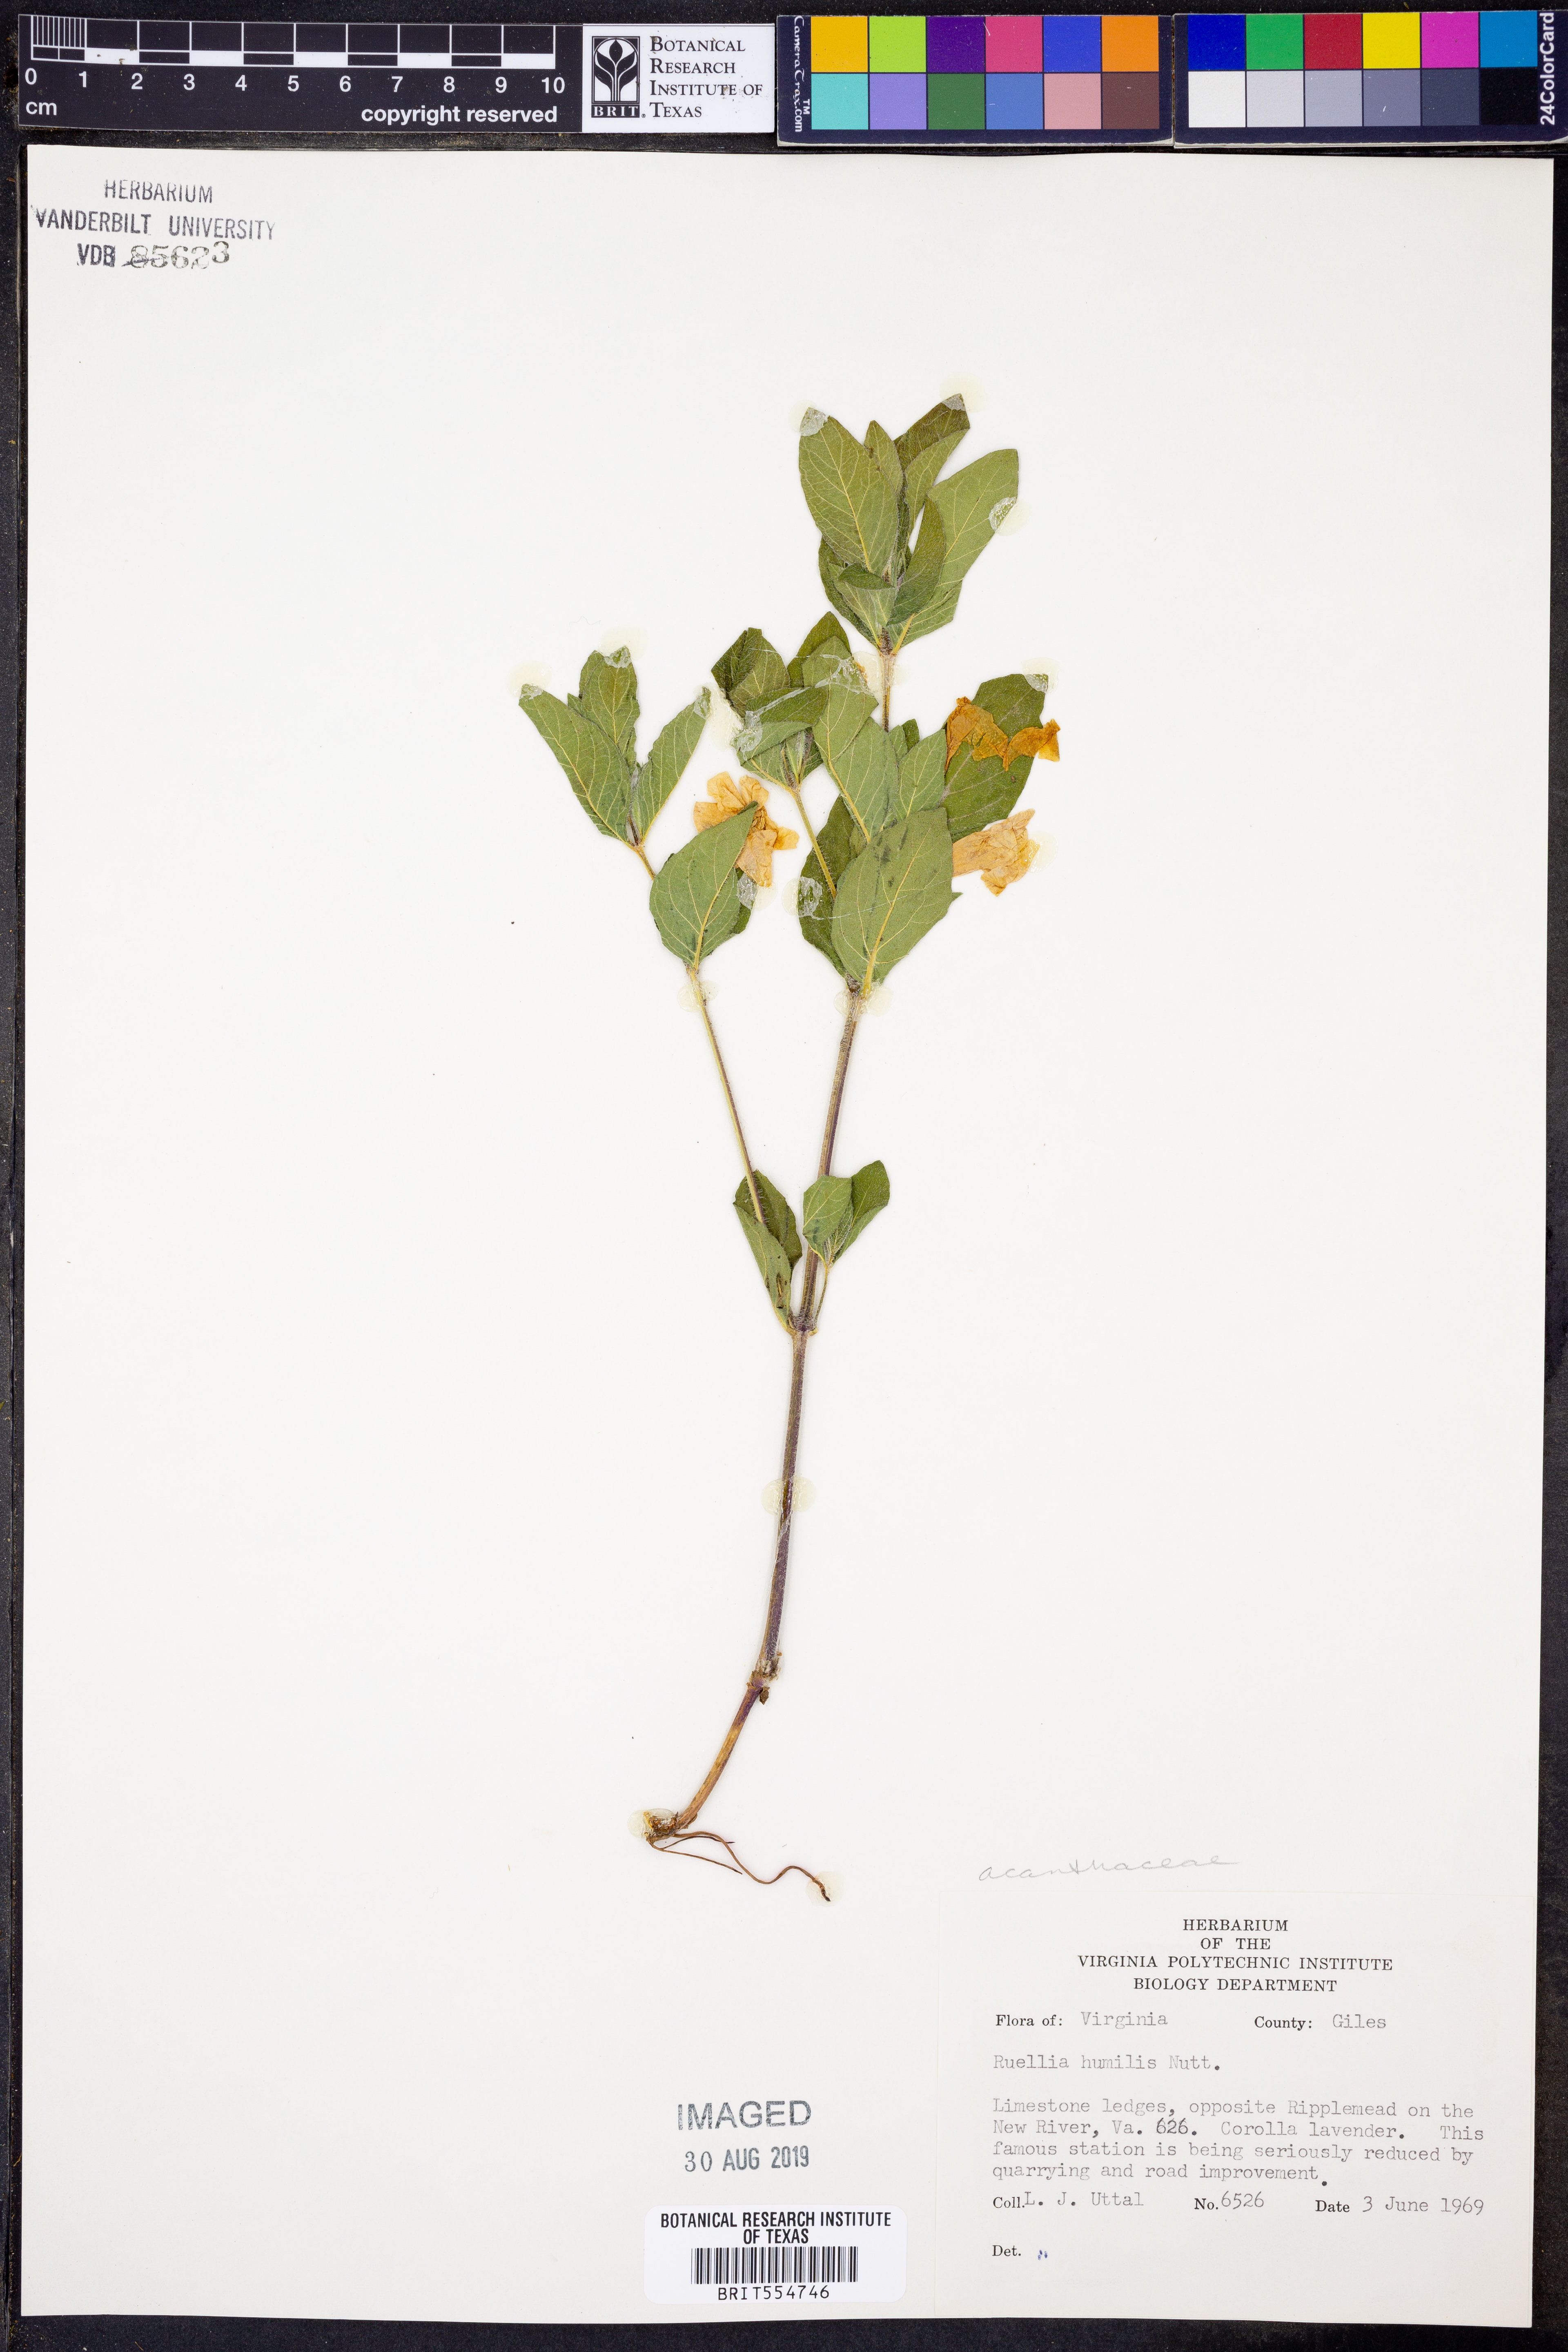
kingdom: Plantae
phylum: Tracheophyta
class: Magnoliopsida
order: Lamiales
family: Acanthaceae
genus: Ruellia
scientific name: Ruellia humilis
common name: Fringe-leaf ruellia
